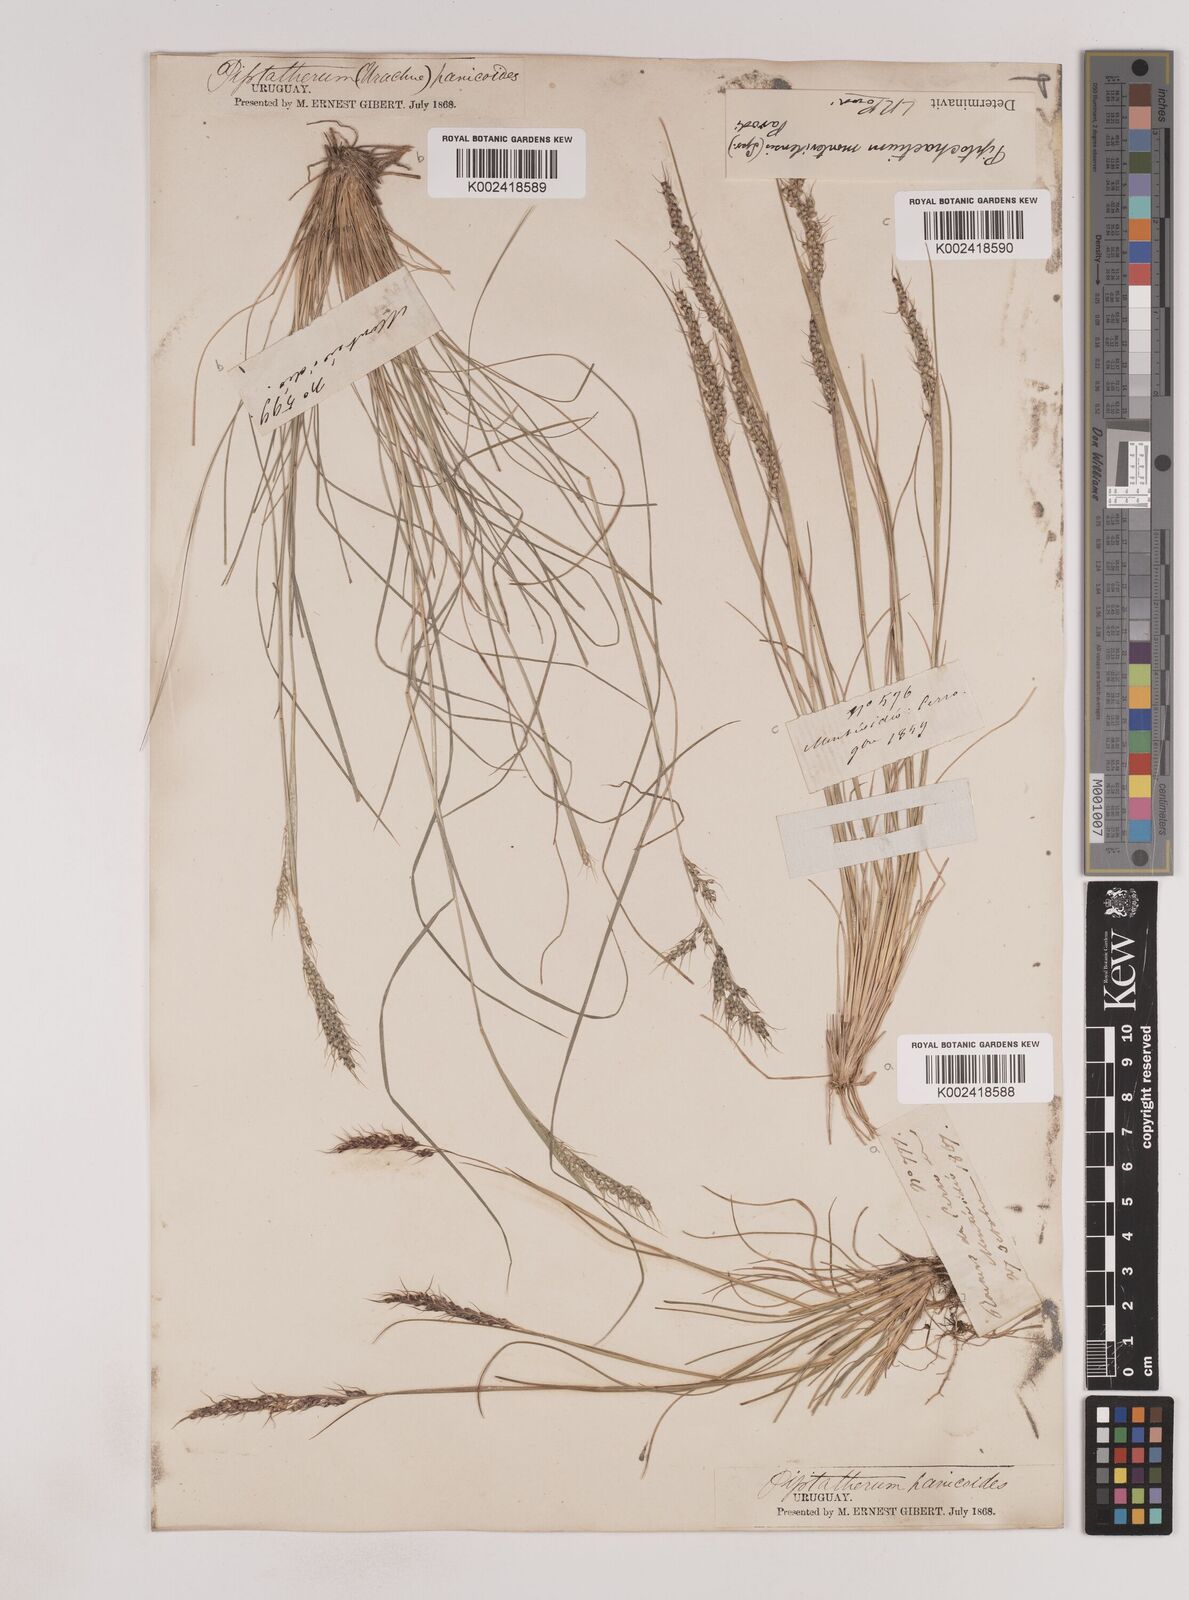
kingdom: Plantae
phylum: Tracheophyta
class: Liliopsida
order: Poales
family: Poaceae
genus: Piptochaetium
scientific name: Piptochaetium montevidense
